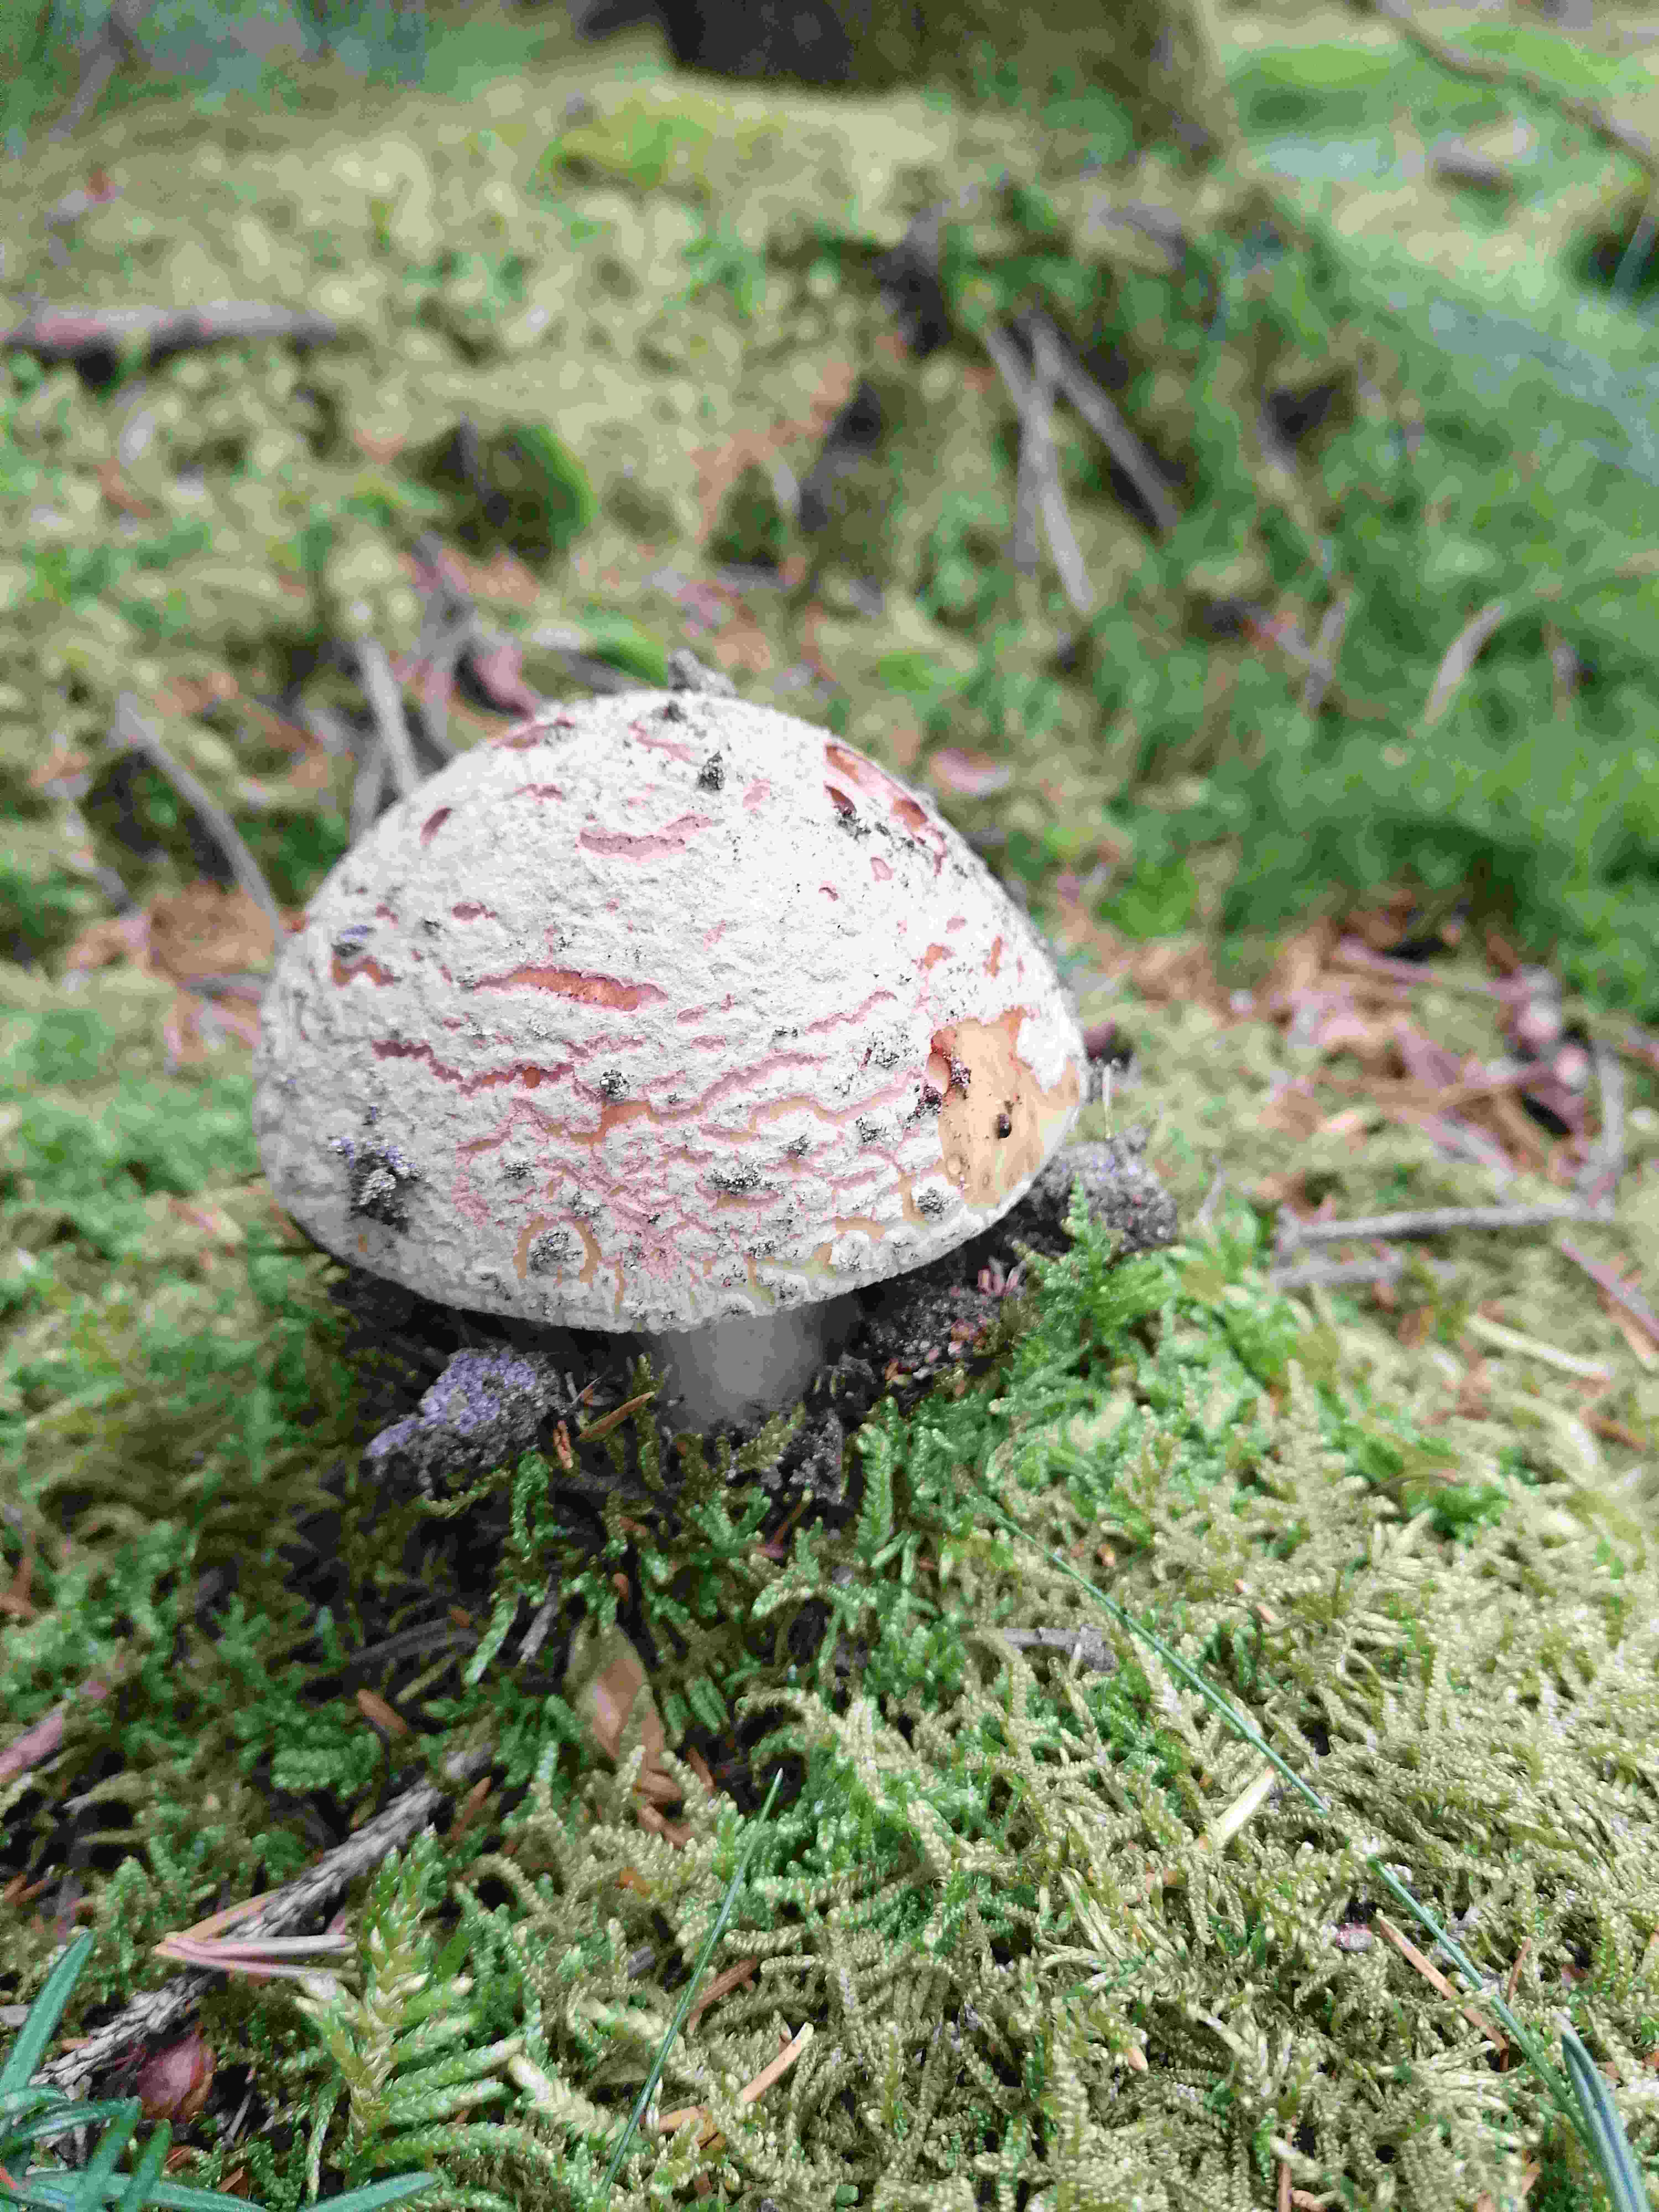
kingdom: Fungi
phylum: Basidiomycota
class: Agaricomycetes
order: Agaricales
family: Amanitaceae
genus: Amanita
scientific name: Amanita rubescens
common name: rødmende fluesvamp
